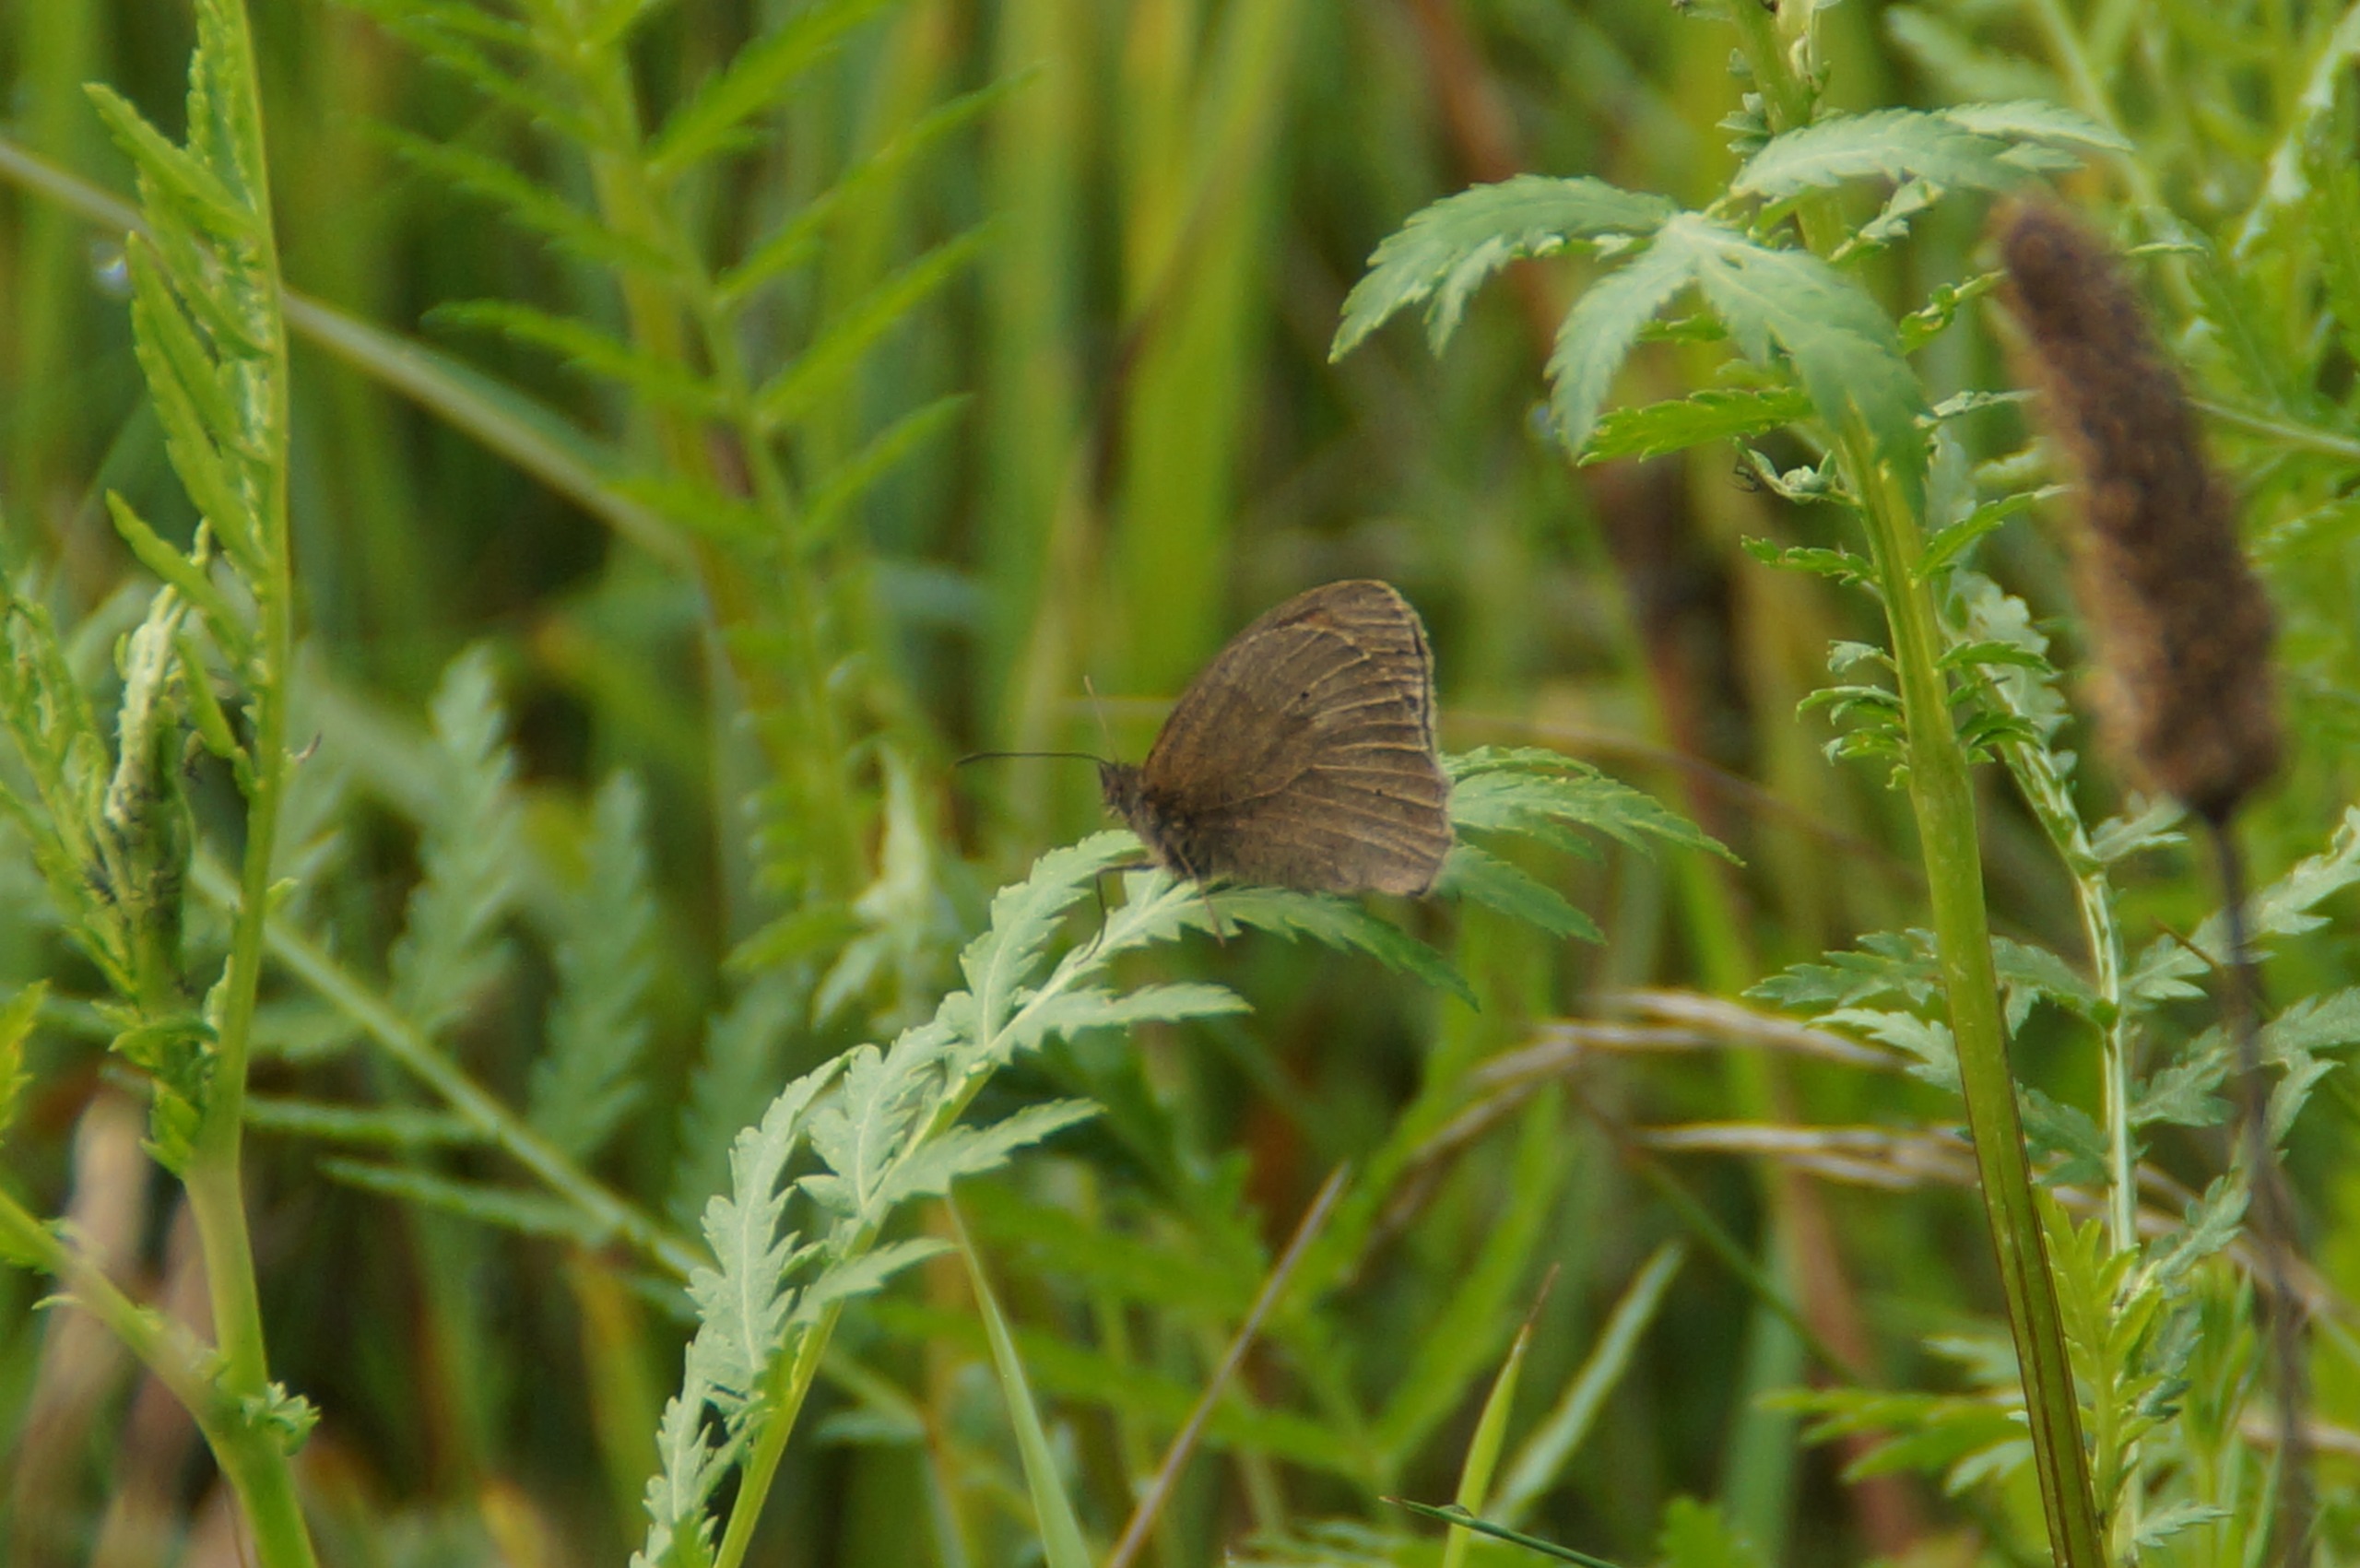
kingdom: Animalia
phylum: Arthropoda
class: Insecta
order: Lepidoptera
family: Nymphalidae
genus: Maniola
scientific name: Maniola jurtina
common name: Græsrandøje
